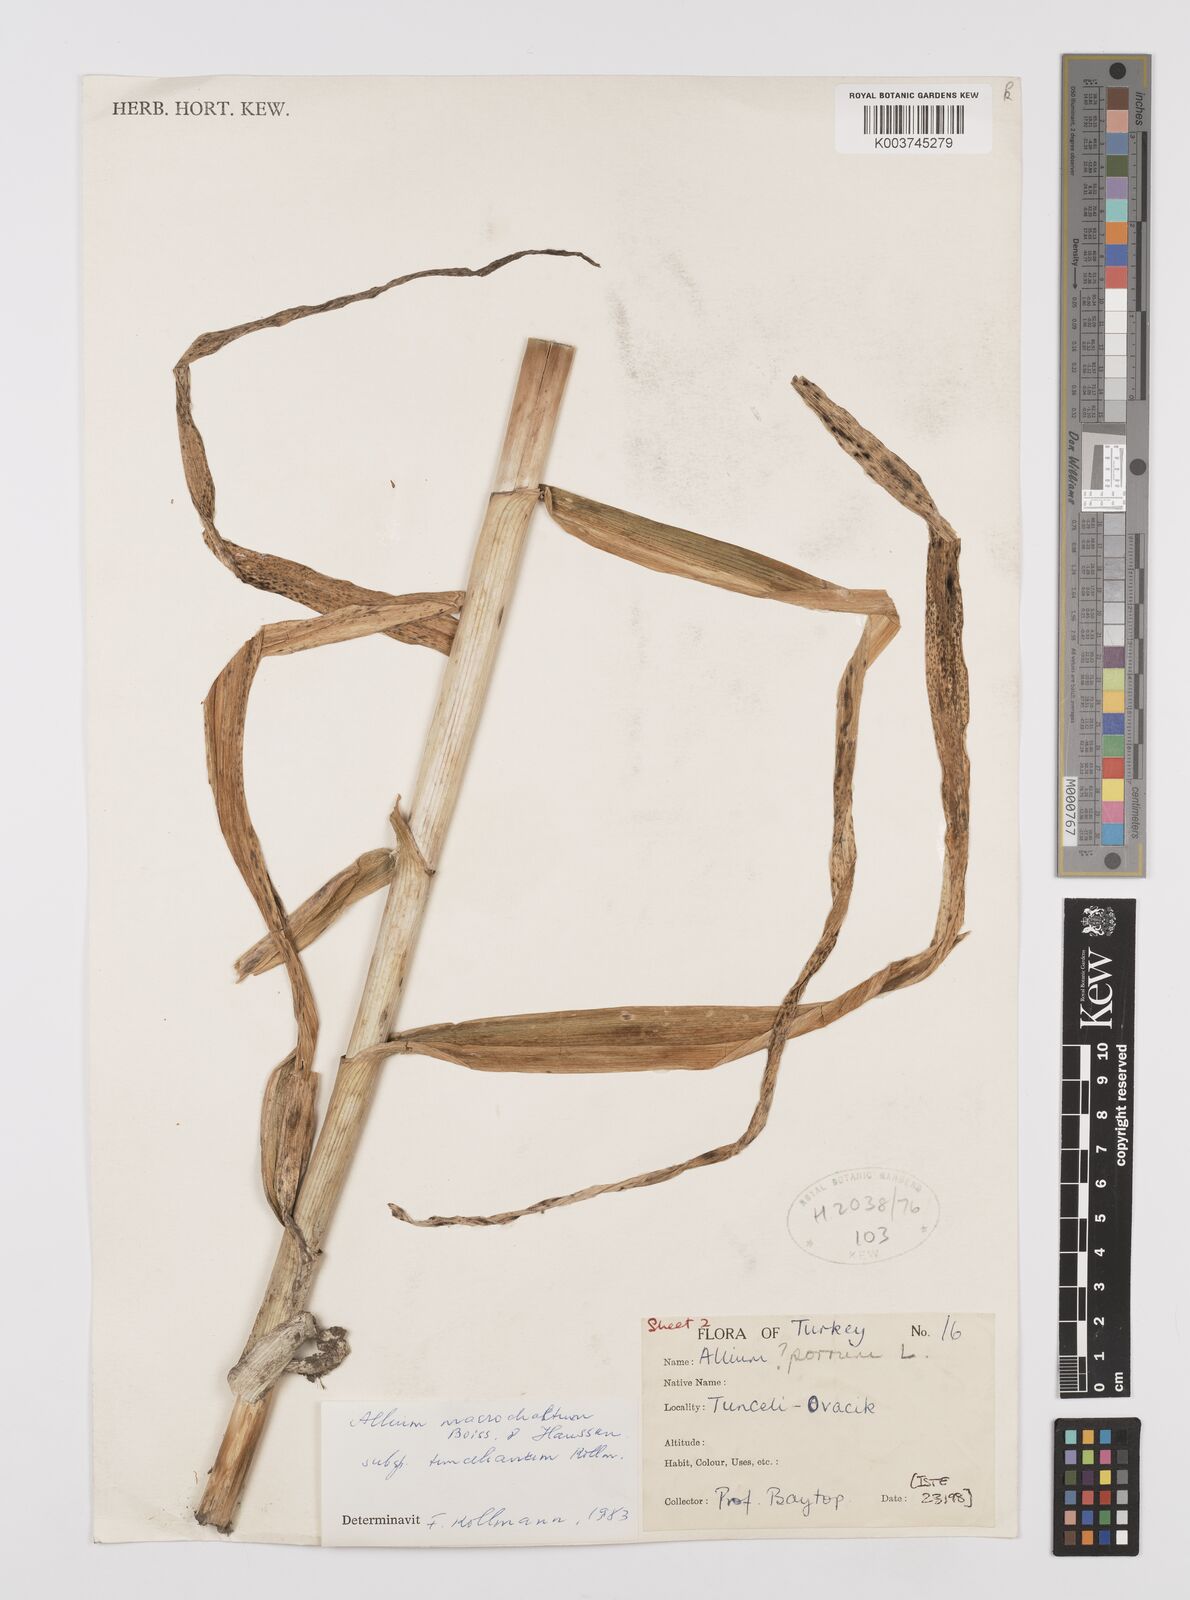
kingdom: Plantae
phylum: Tracheophyta
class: Liliopsida
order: Asparagales
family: Amaryllidaceae
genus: Allium
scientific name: Allium tuncelianum
